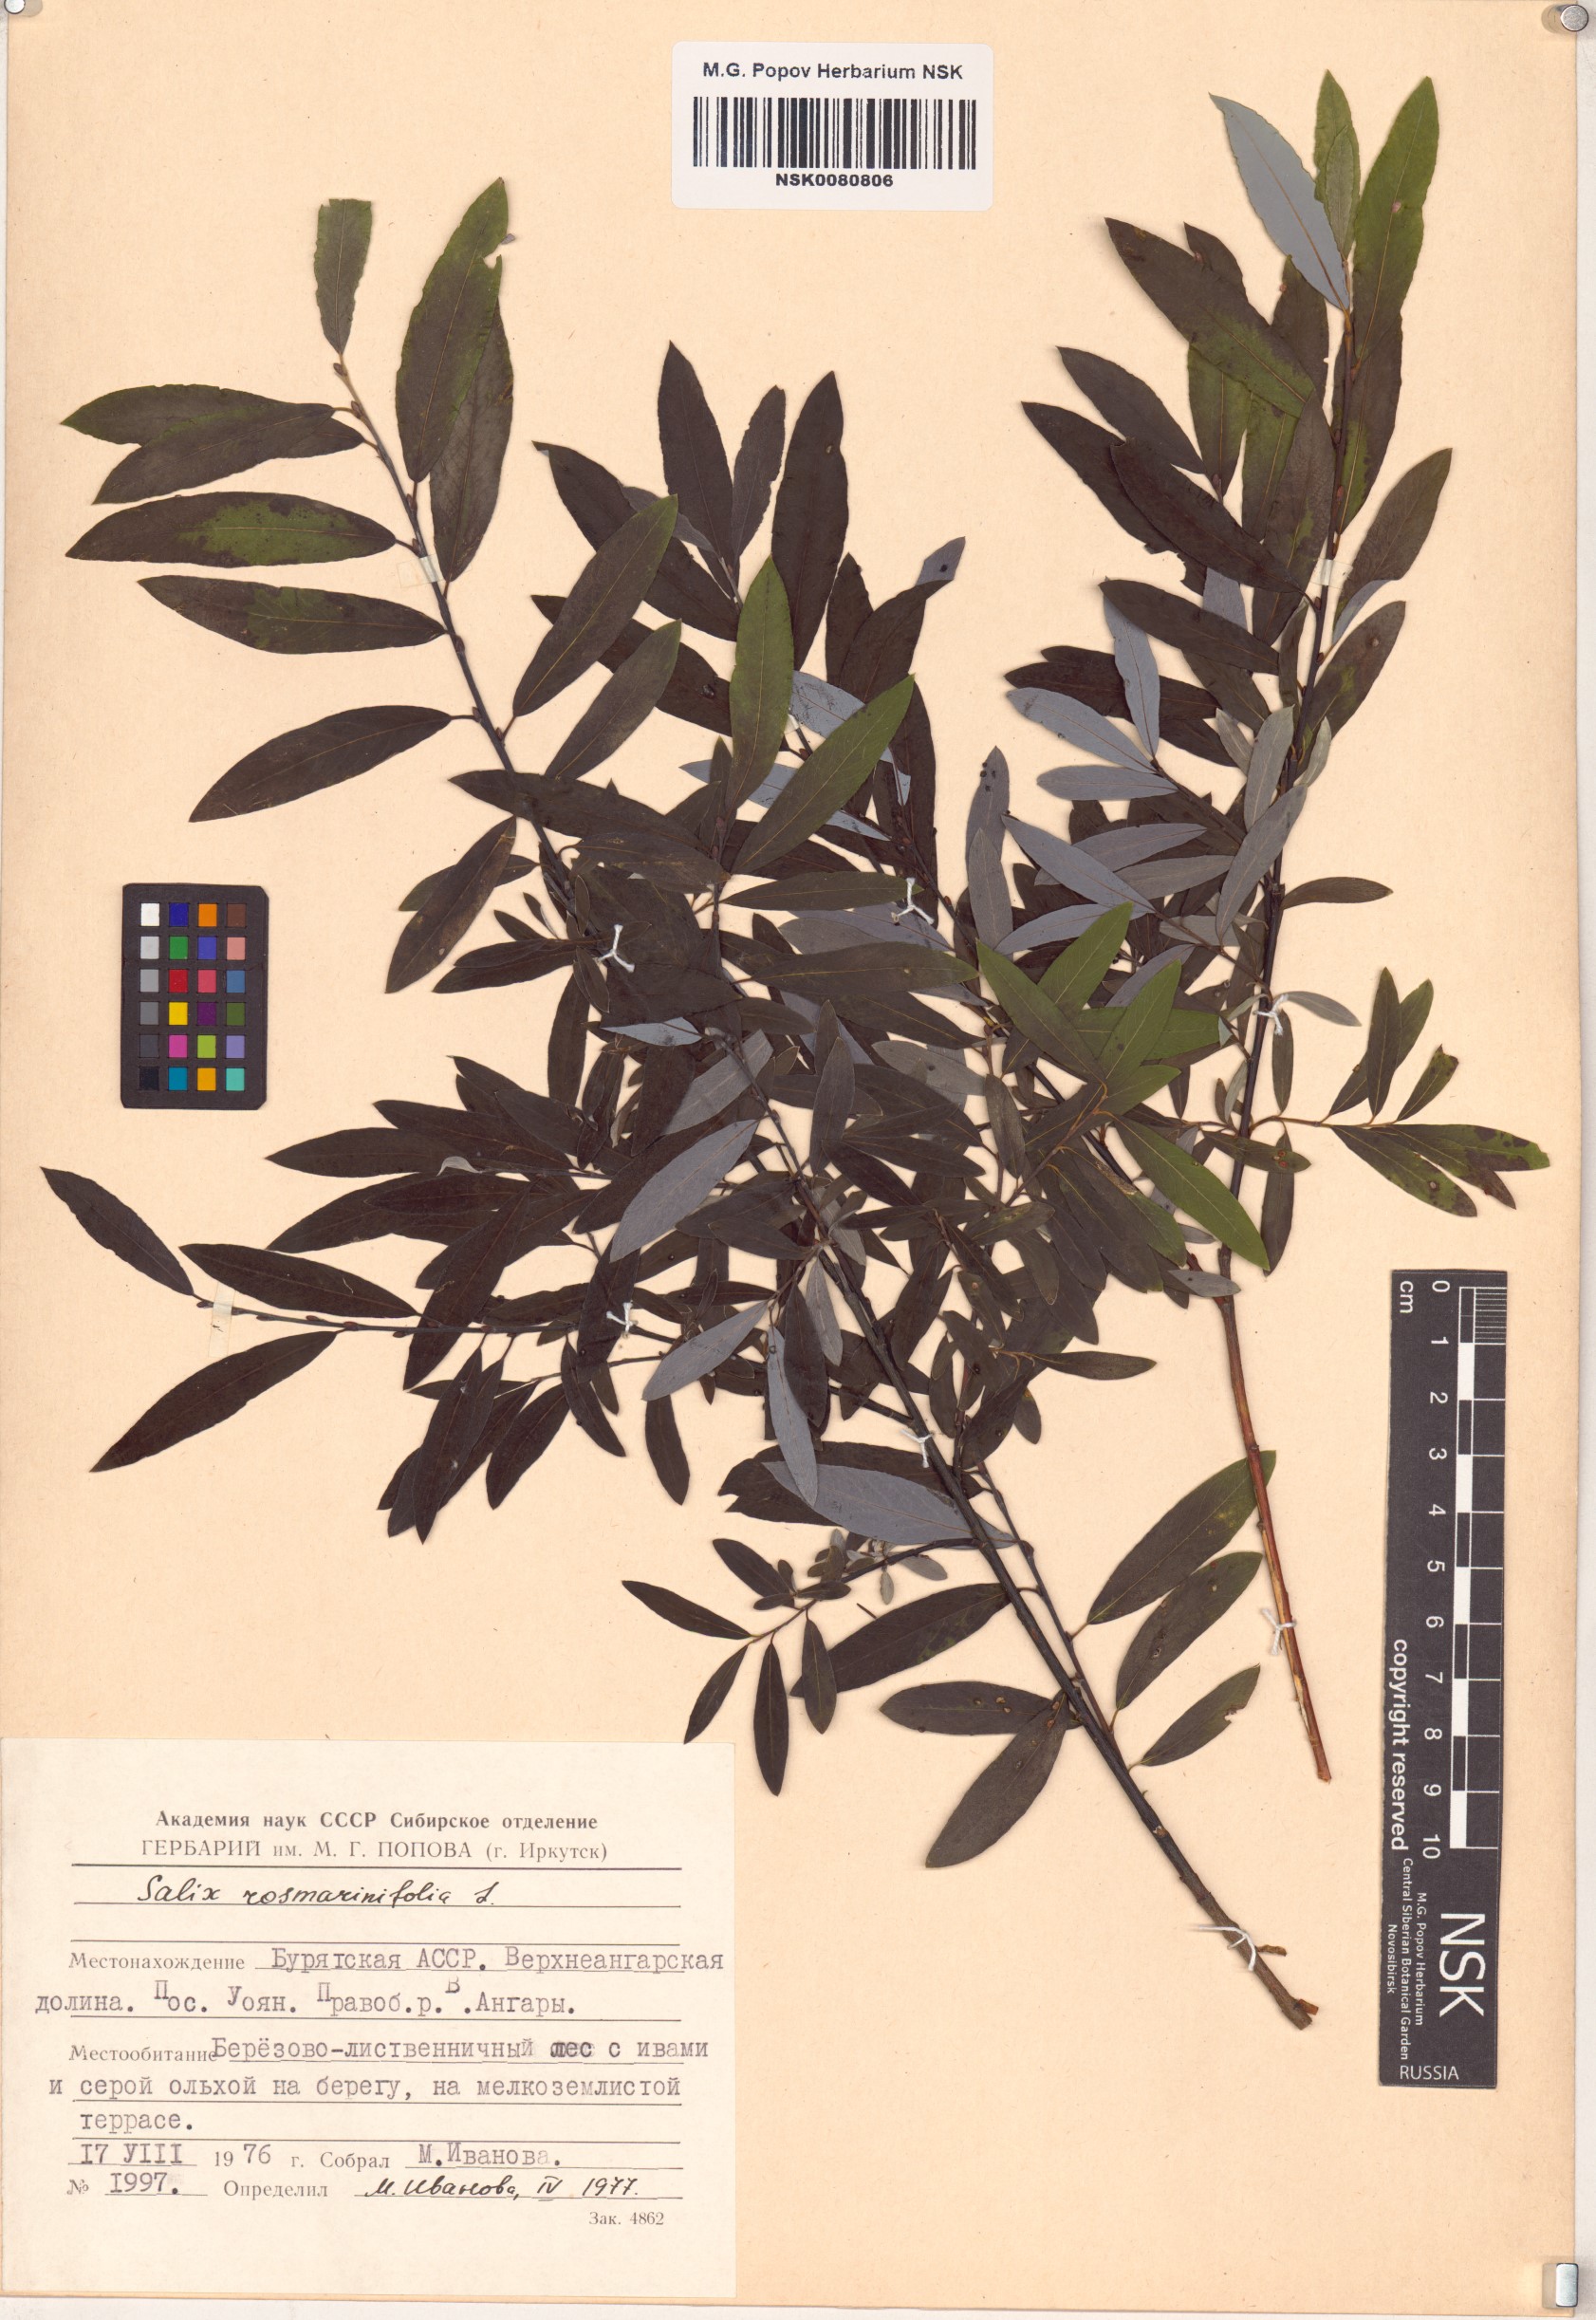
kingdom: Plantae
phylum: Tracheophyta
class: Magnoliopsida
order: Malpighiales
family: Salicaceae
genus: Salix
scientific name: Salix rosmarinifolia
